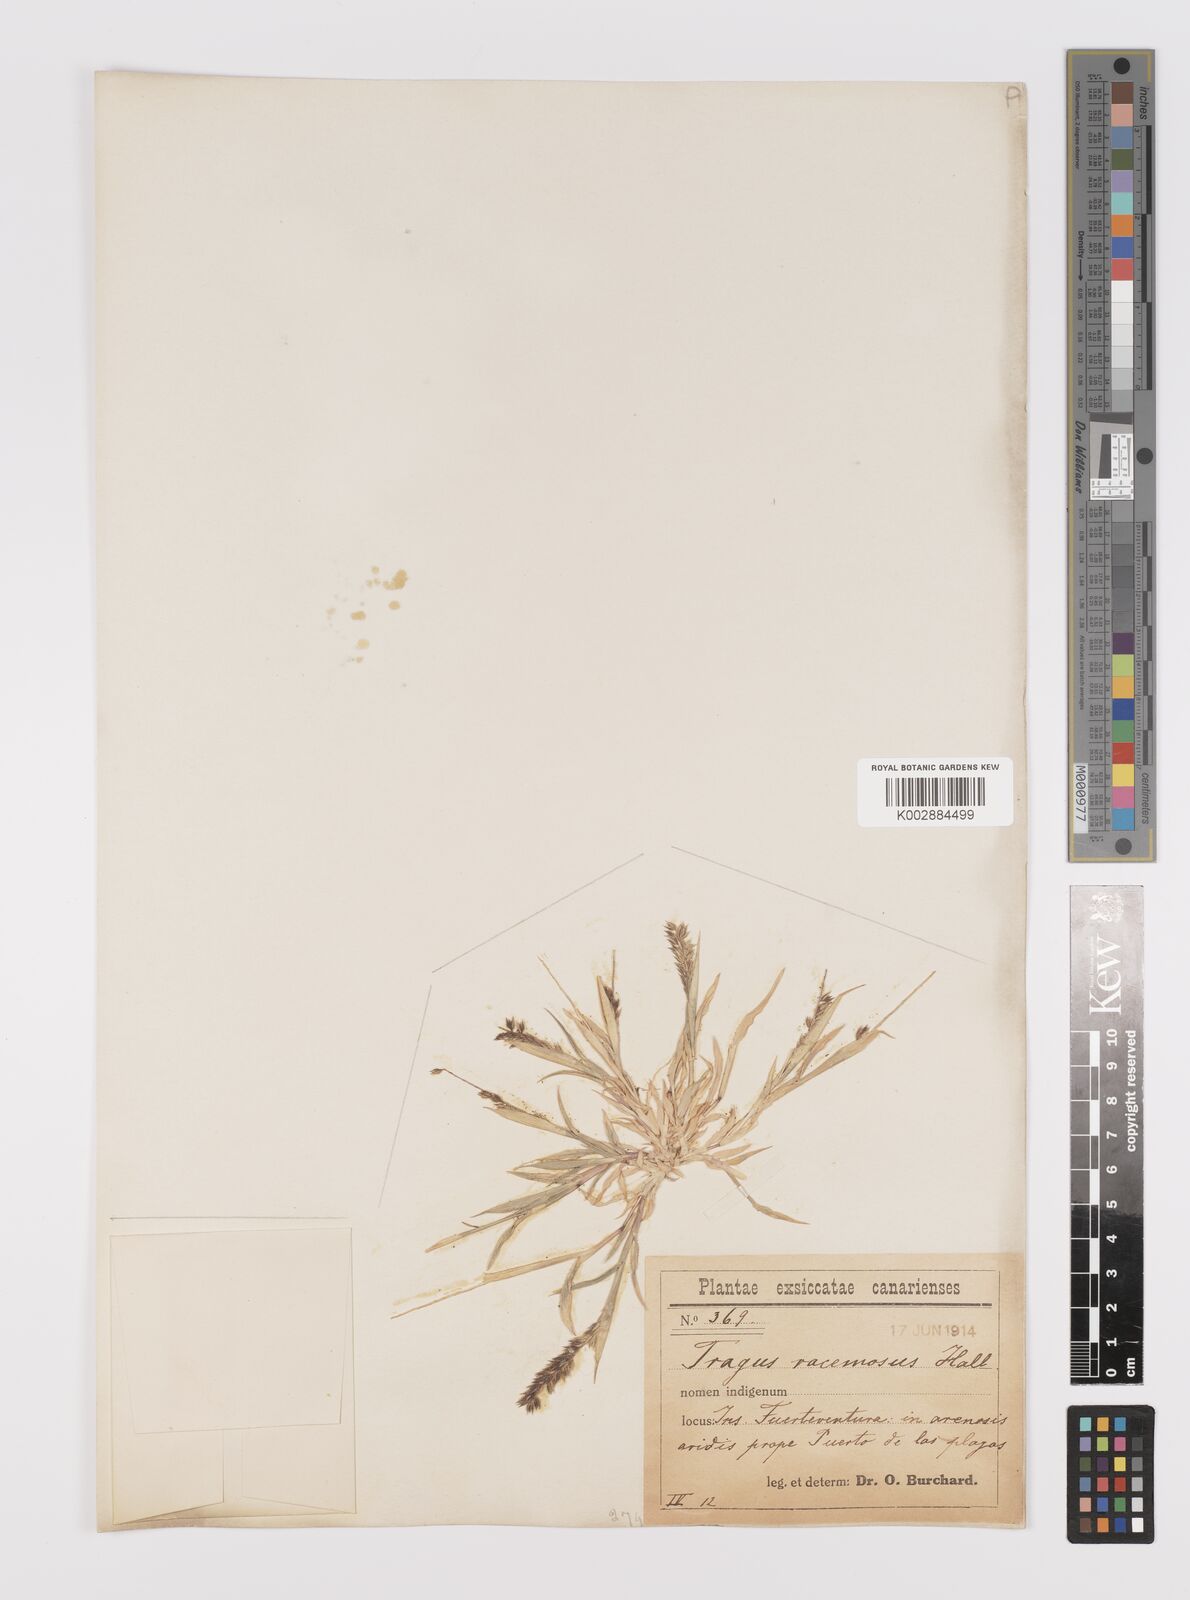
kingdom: Plantae
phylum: Tracheophyta
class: Liliopsida
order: Poales
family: Poaceae
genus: Tragus
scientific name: Tragus racemosus
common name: European bur-grass
